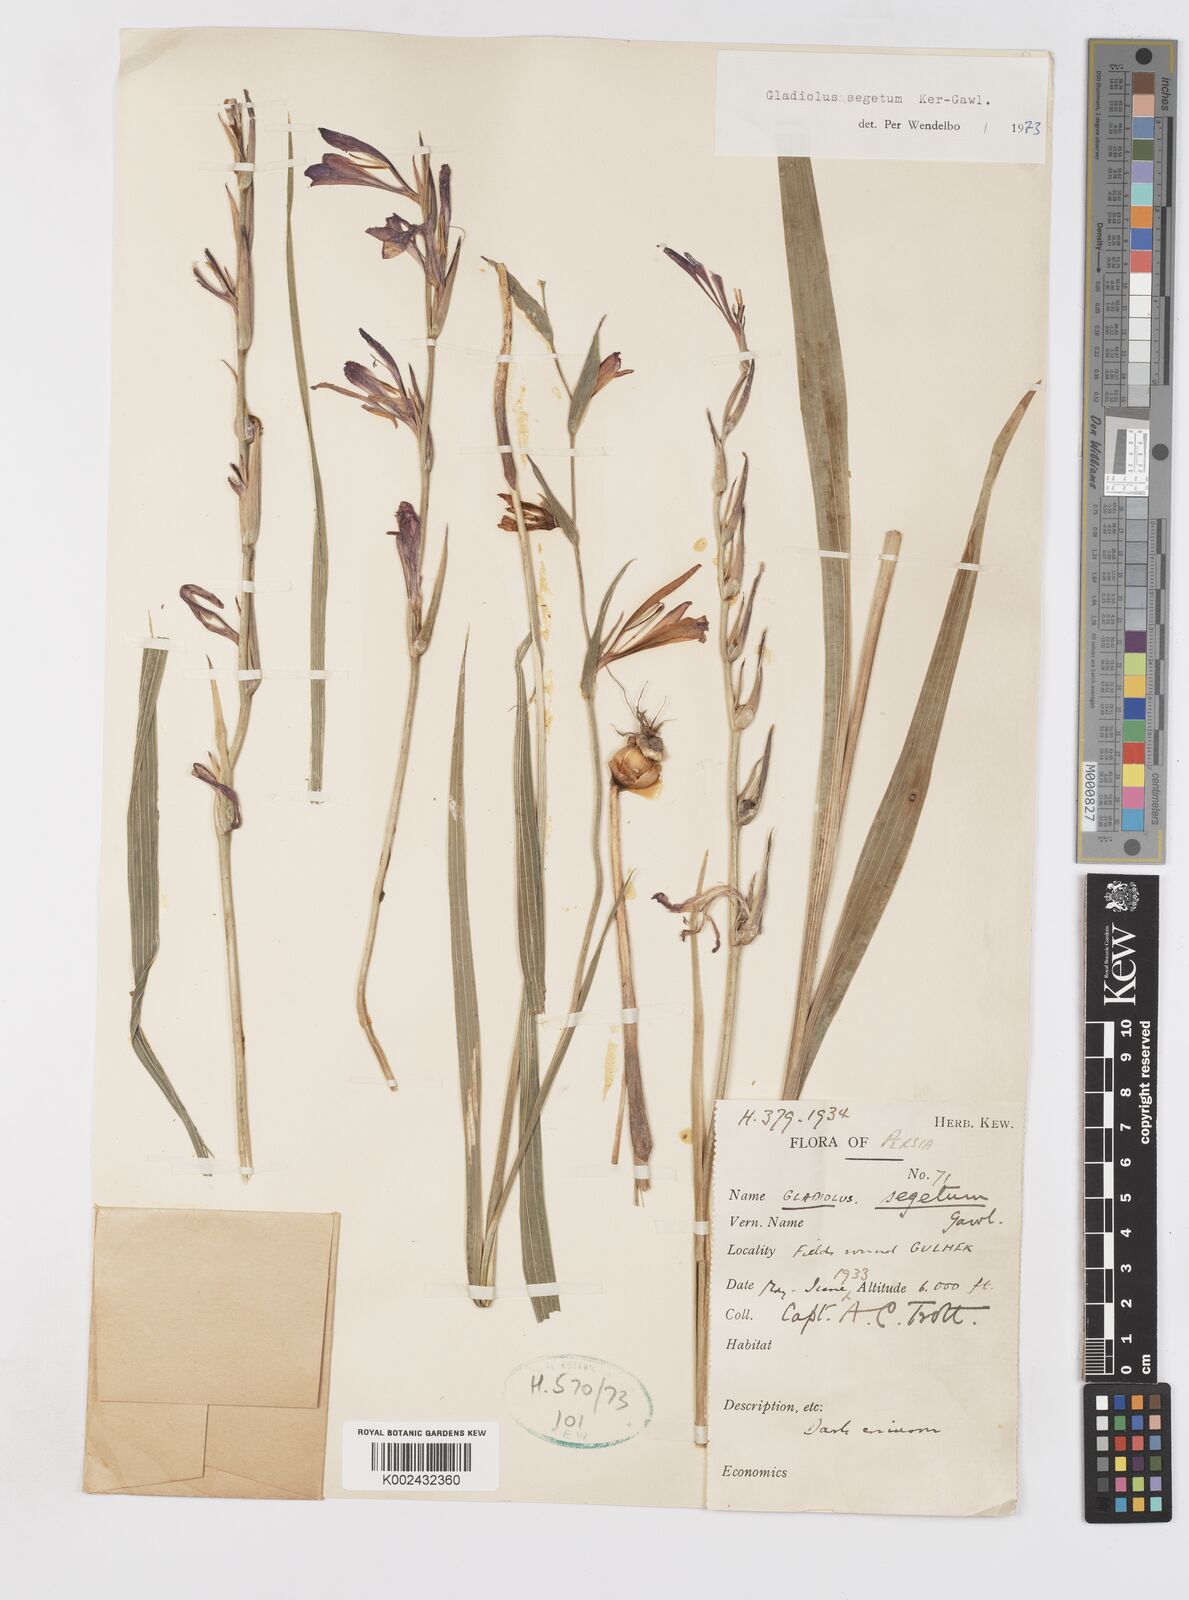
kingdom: Plantae
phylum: Tracheophyta
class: Liliopsida
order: Asparagales
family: Iridaceae
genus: Gladiolus
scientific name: Gladiolus italicus
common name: Field gladiolus
